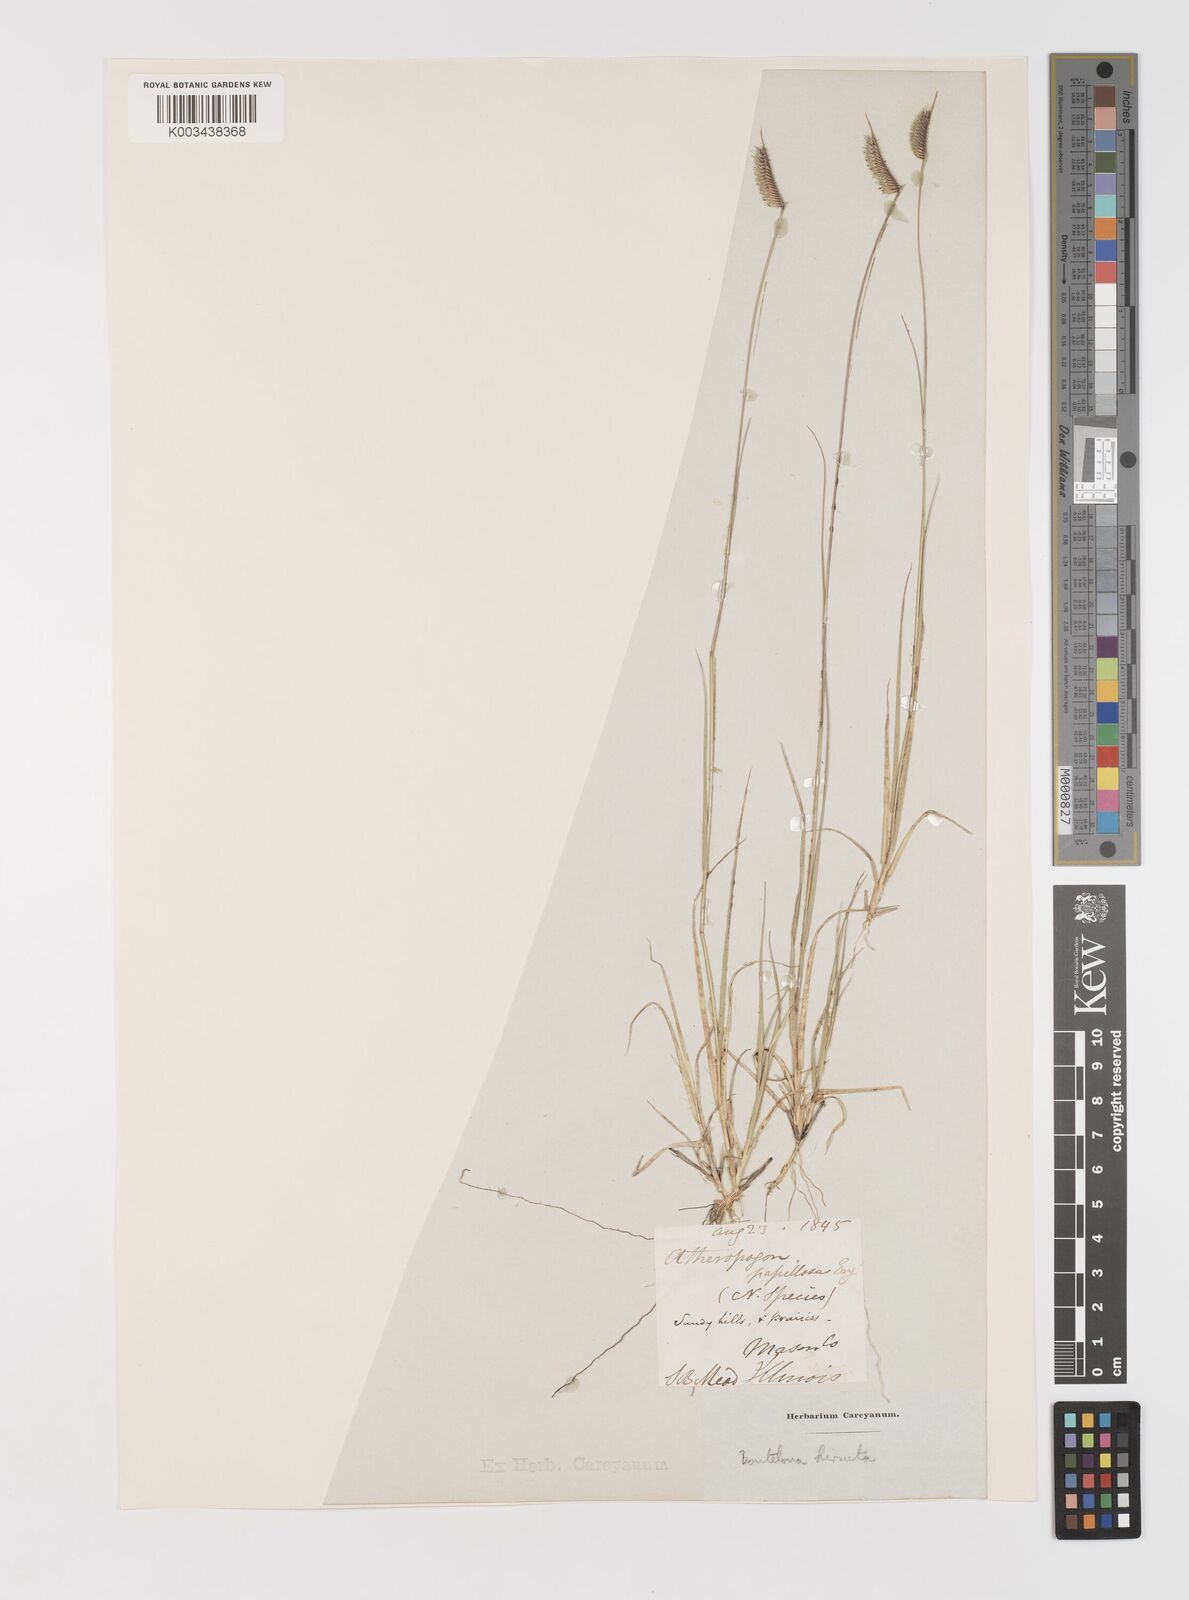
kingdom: Plantae
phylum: Tracheophyta
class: Liliopsida
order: Poales
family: Poaceae
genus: Bouteloua
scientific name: Bouteloua hirsuta
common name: Hairy grama
